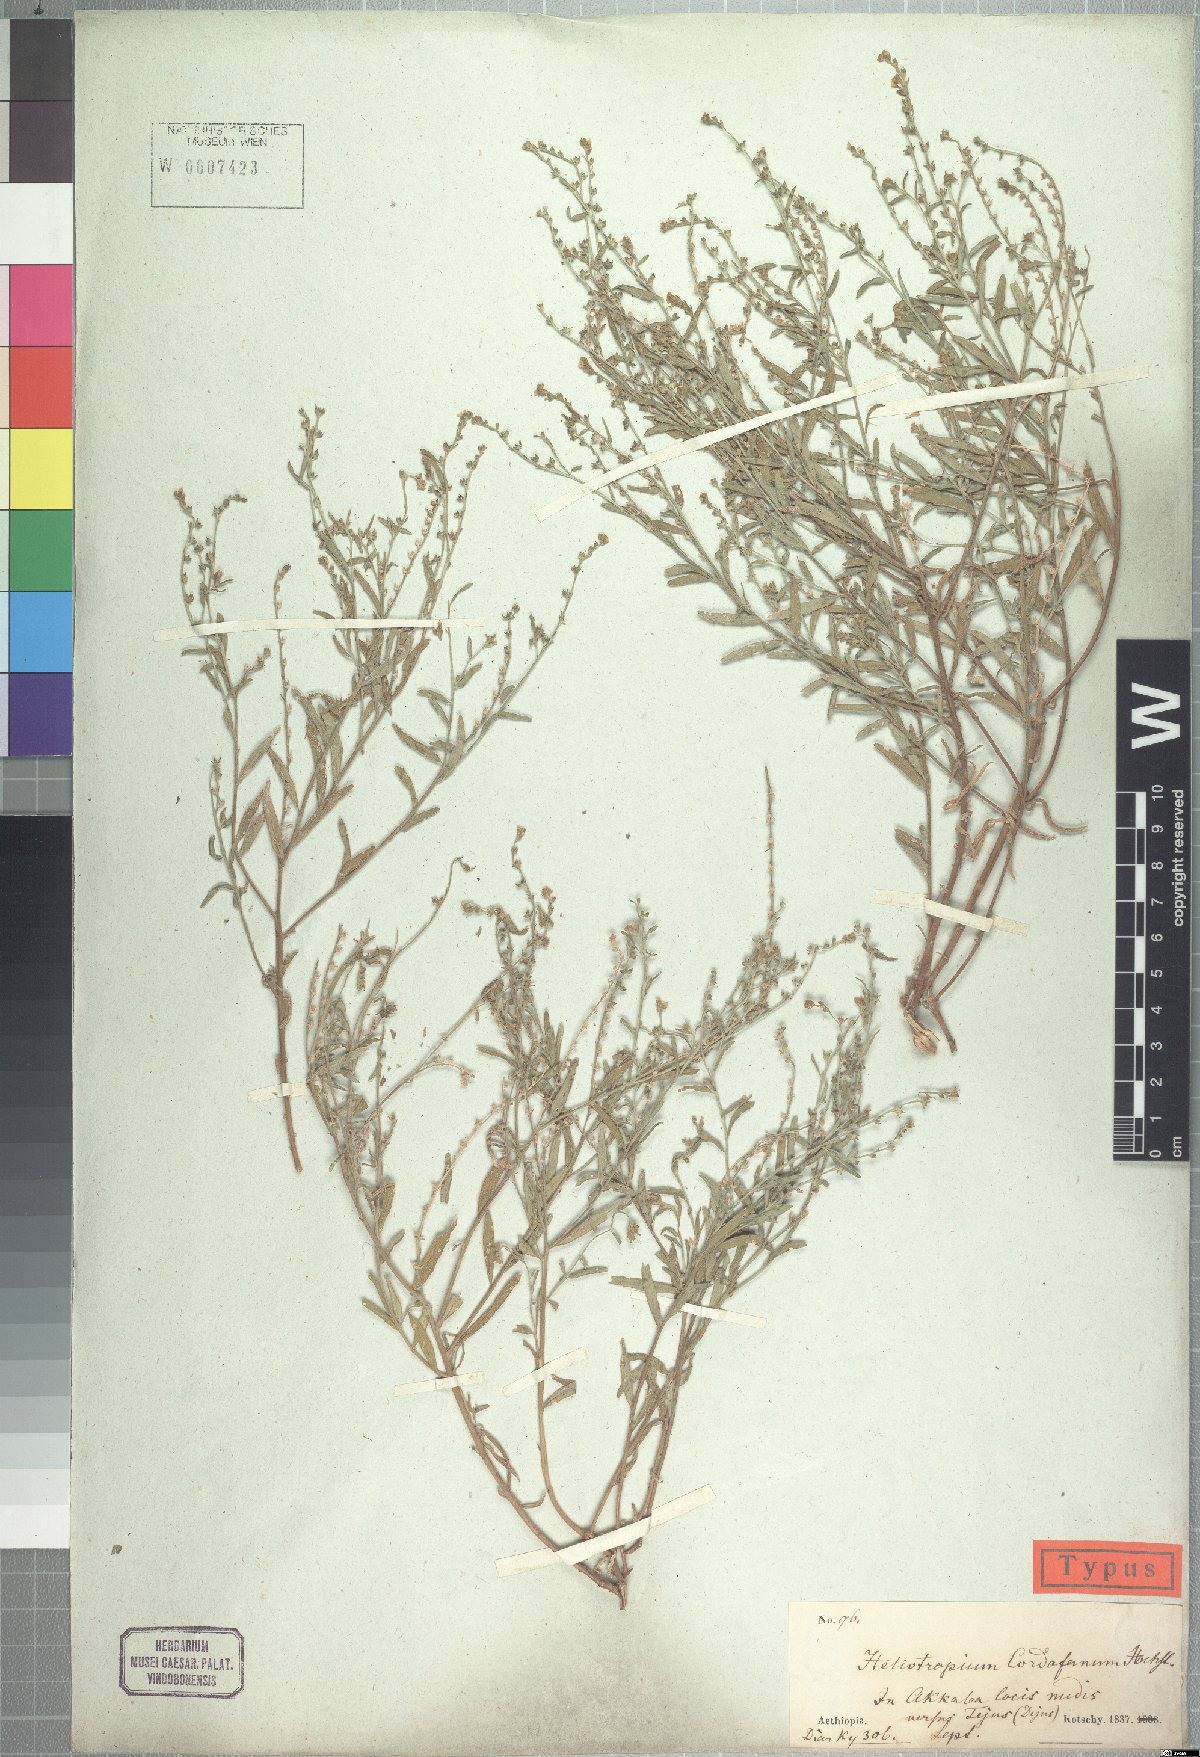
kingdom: Plantae
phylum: Tracheophyta
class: Magnoliopsida
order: Boraginales
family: Heliotropiaceae
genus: Euploca
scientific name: Euploca strigosa
